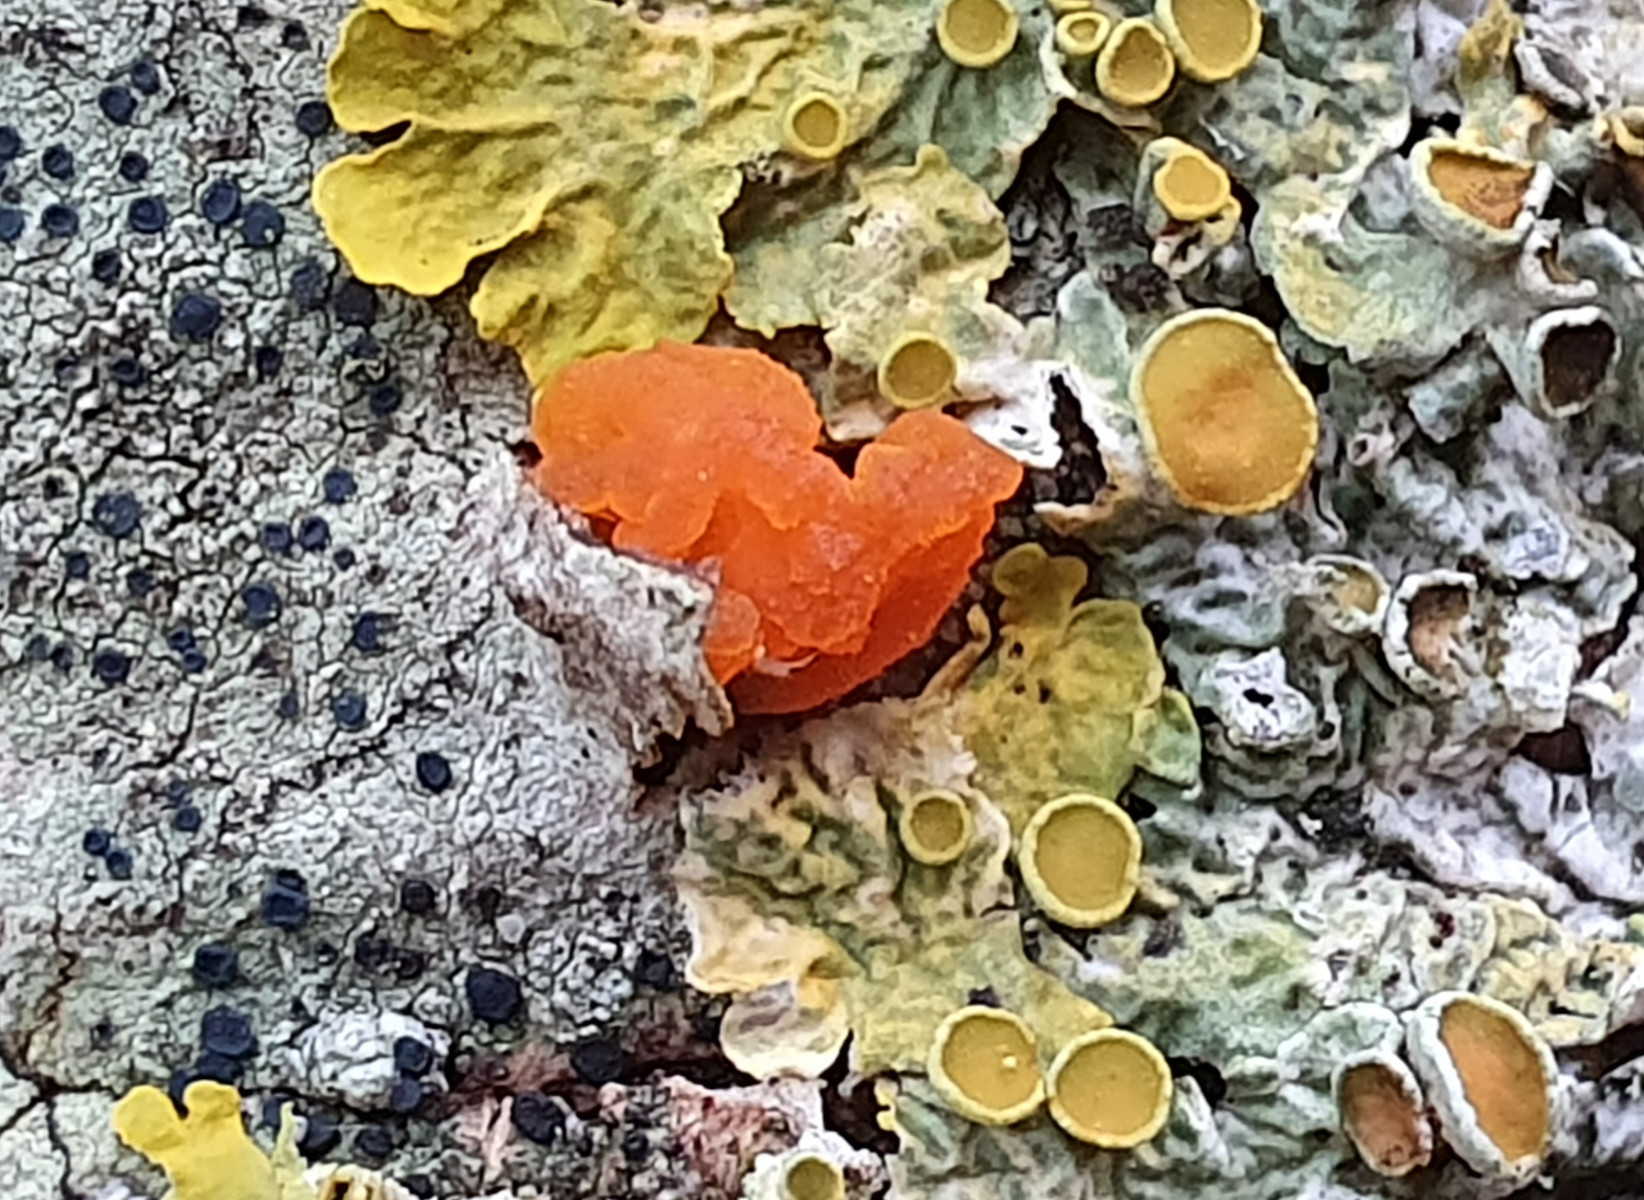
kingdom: Fungi
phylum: Basidiomycota
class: Tremellomycetes
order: Tremellales
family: Tremellaceae
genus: Tremella
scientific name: Tremella mesenterica
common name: gul bævresvamp
